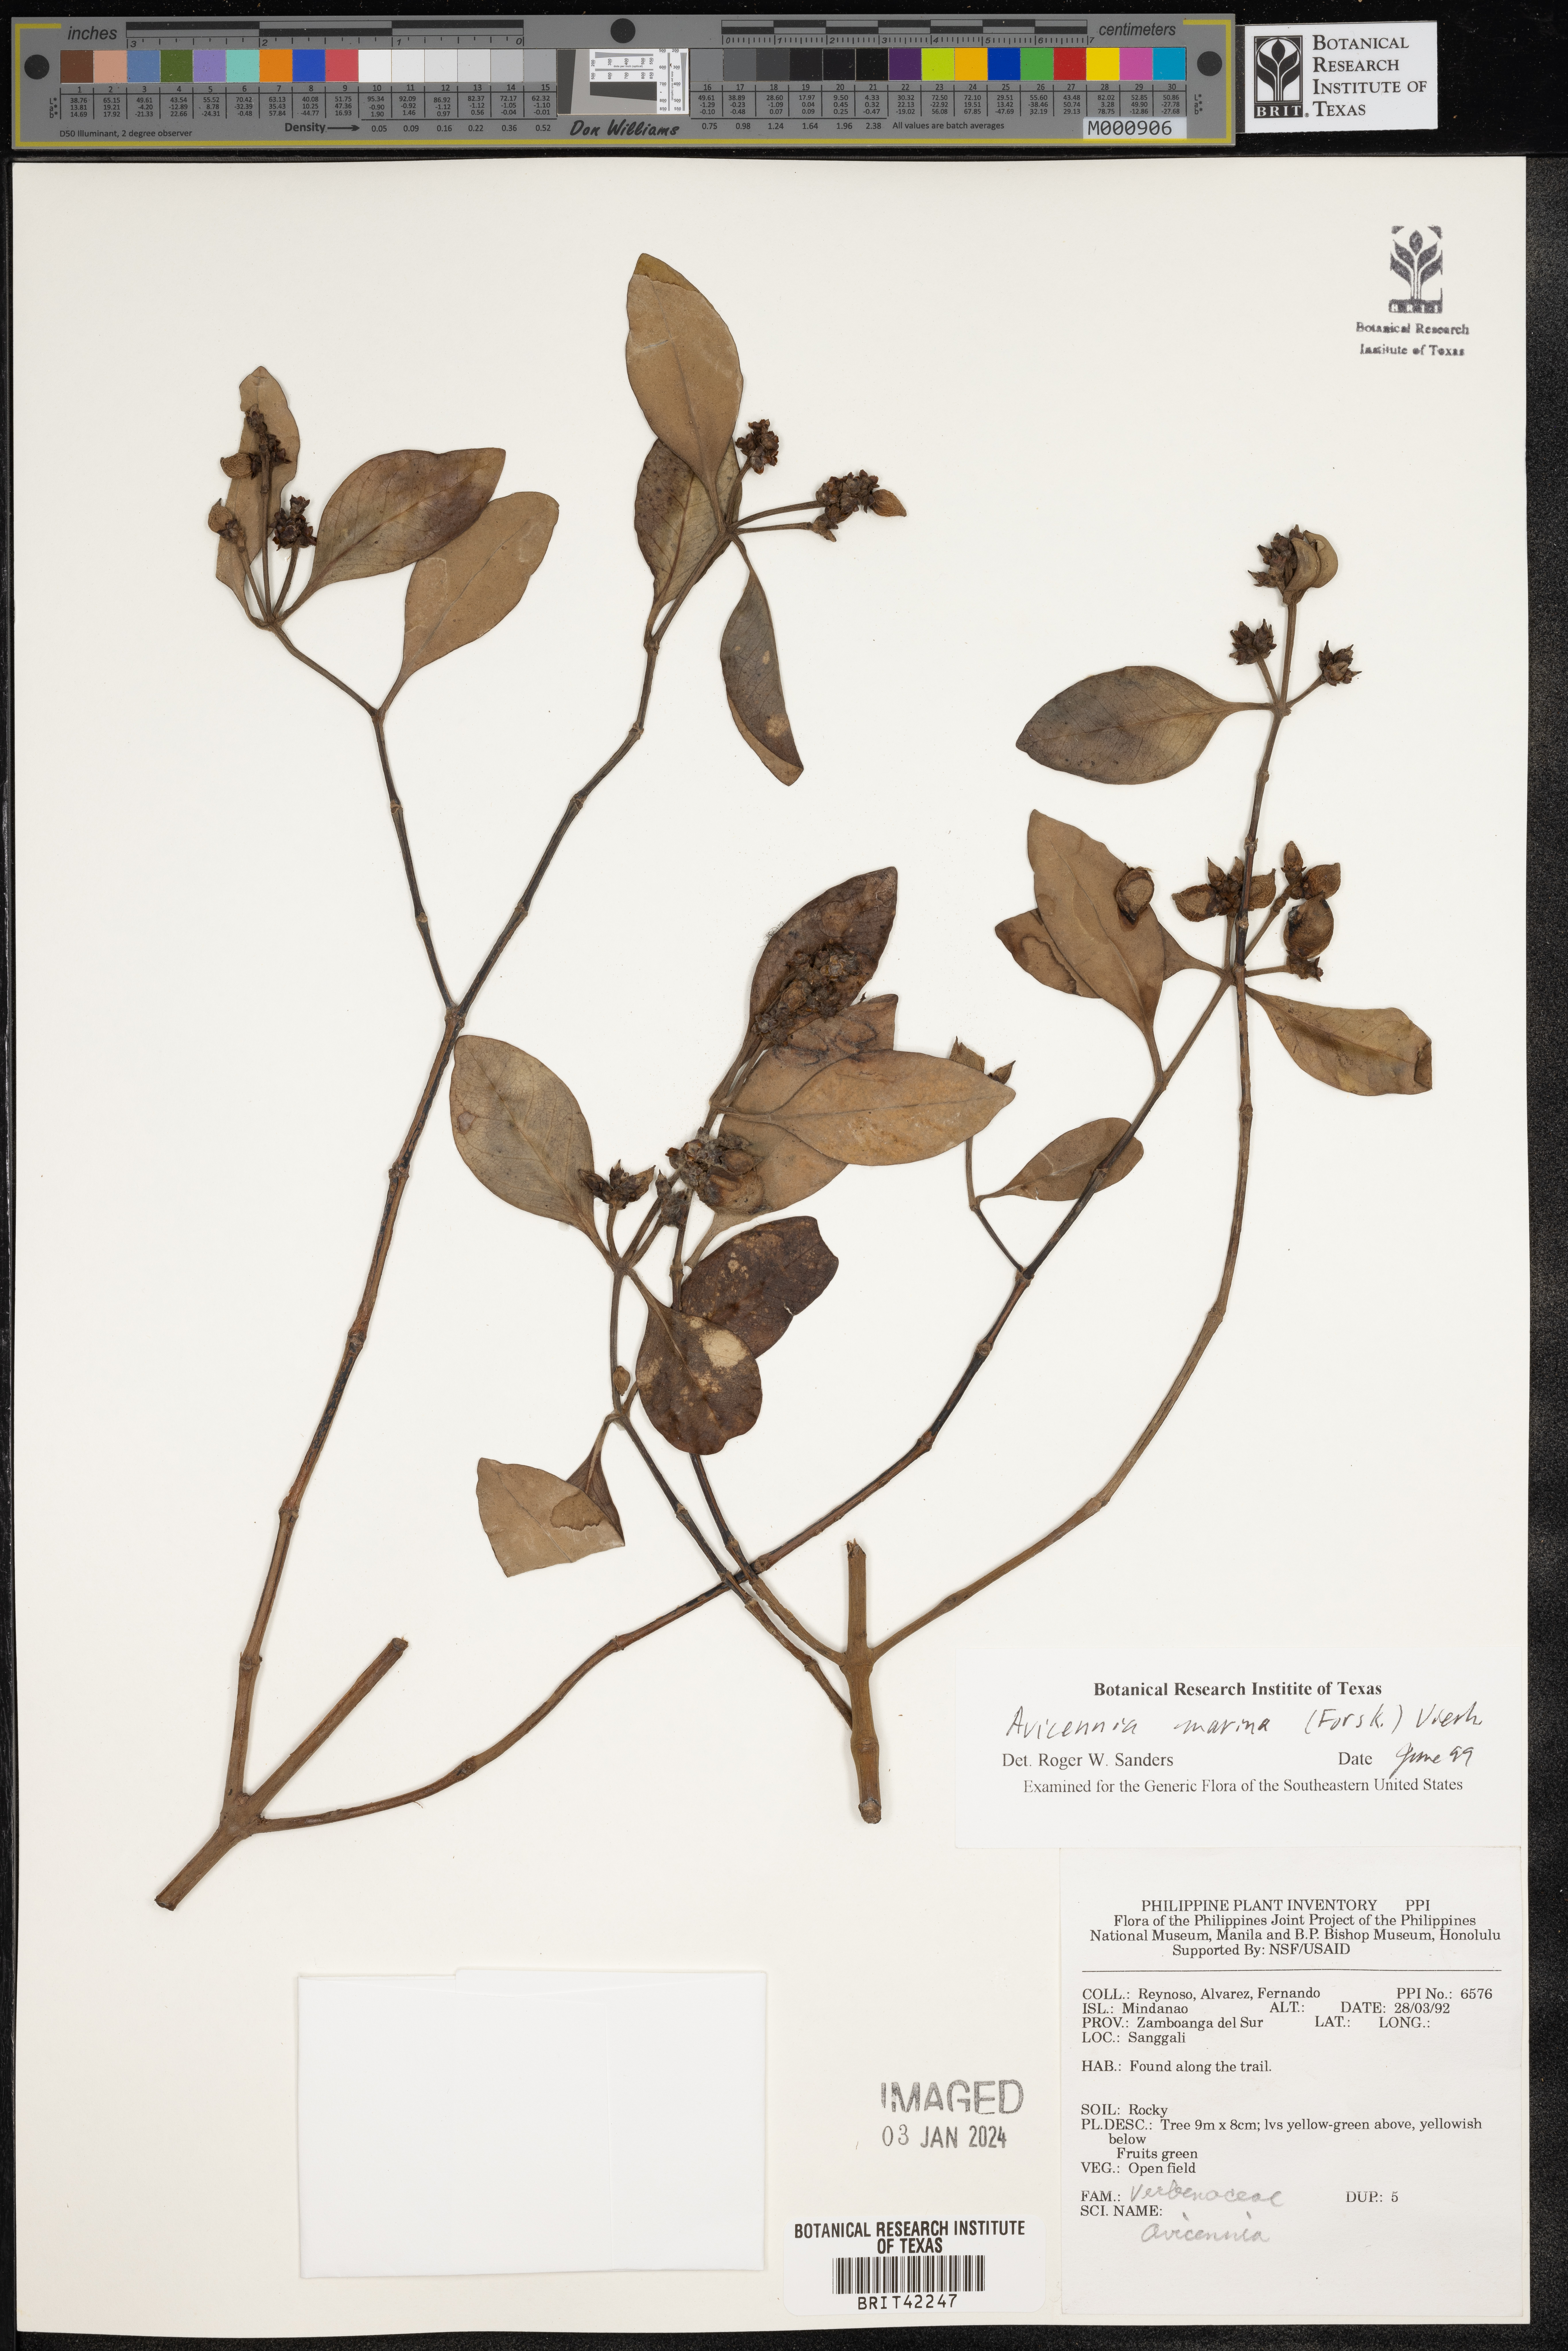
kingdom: Plantae
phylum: Tracheophyta
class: Magnoliopsida
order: Lamiales
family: Acanthaceae
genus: Avicennia
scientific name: Avicennia marina
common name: Gray mangrove
